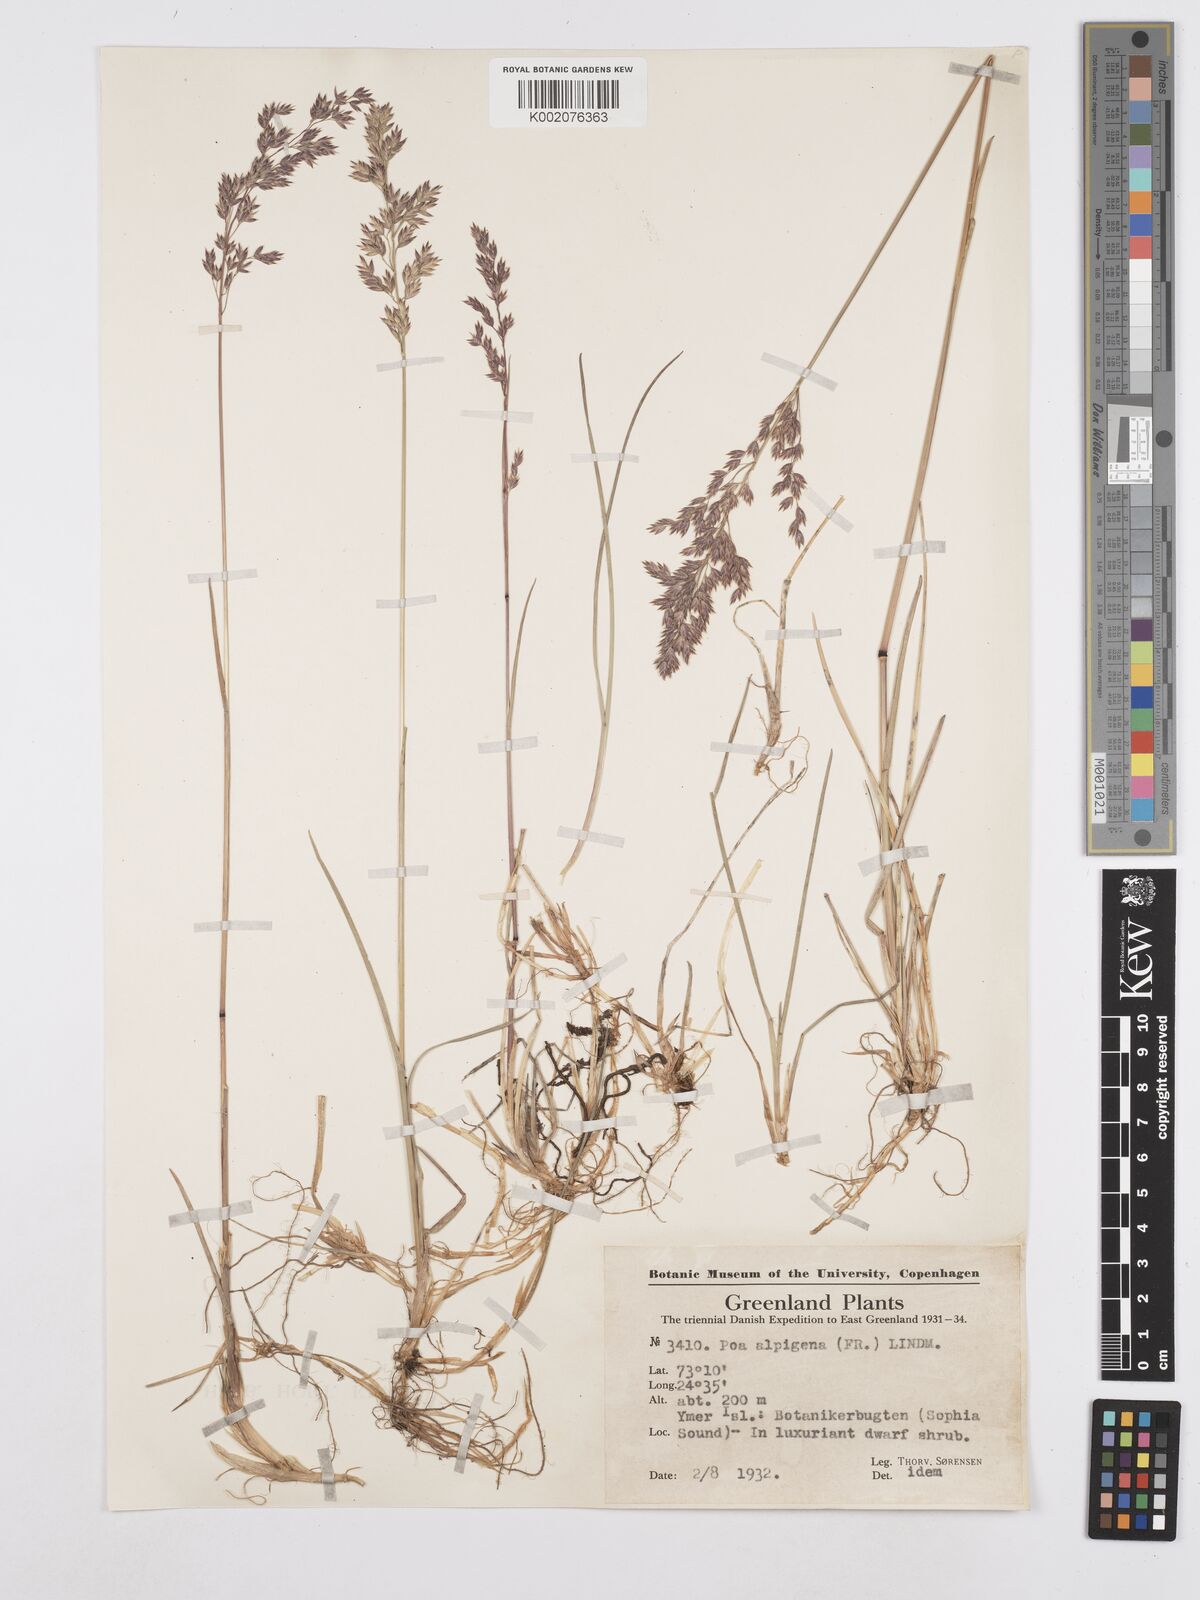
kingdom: Plantae
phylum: Tracheophyta
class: Liliopsida
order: Poales
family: Poaceae
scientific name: Poaceae
